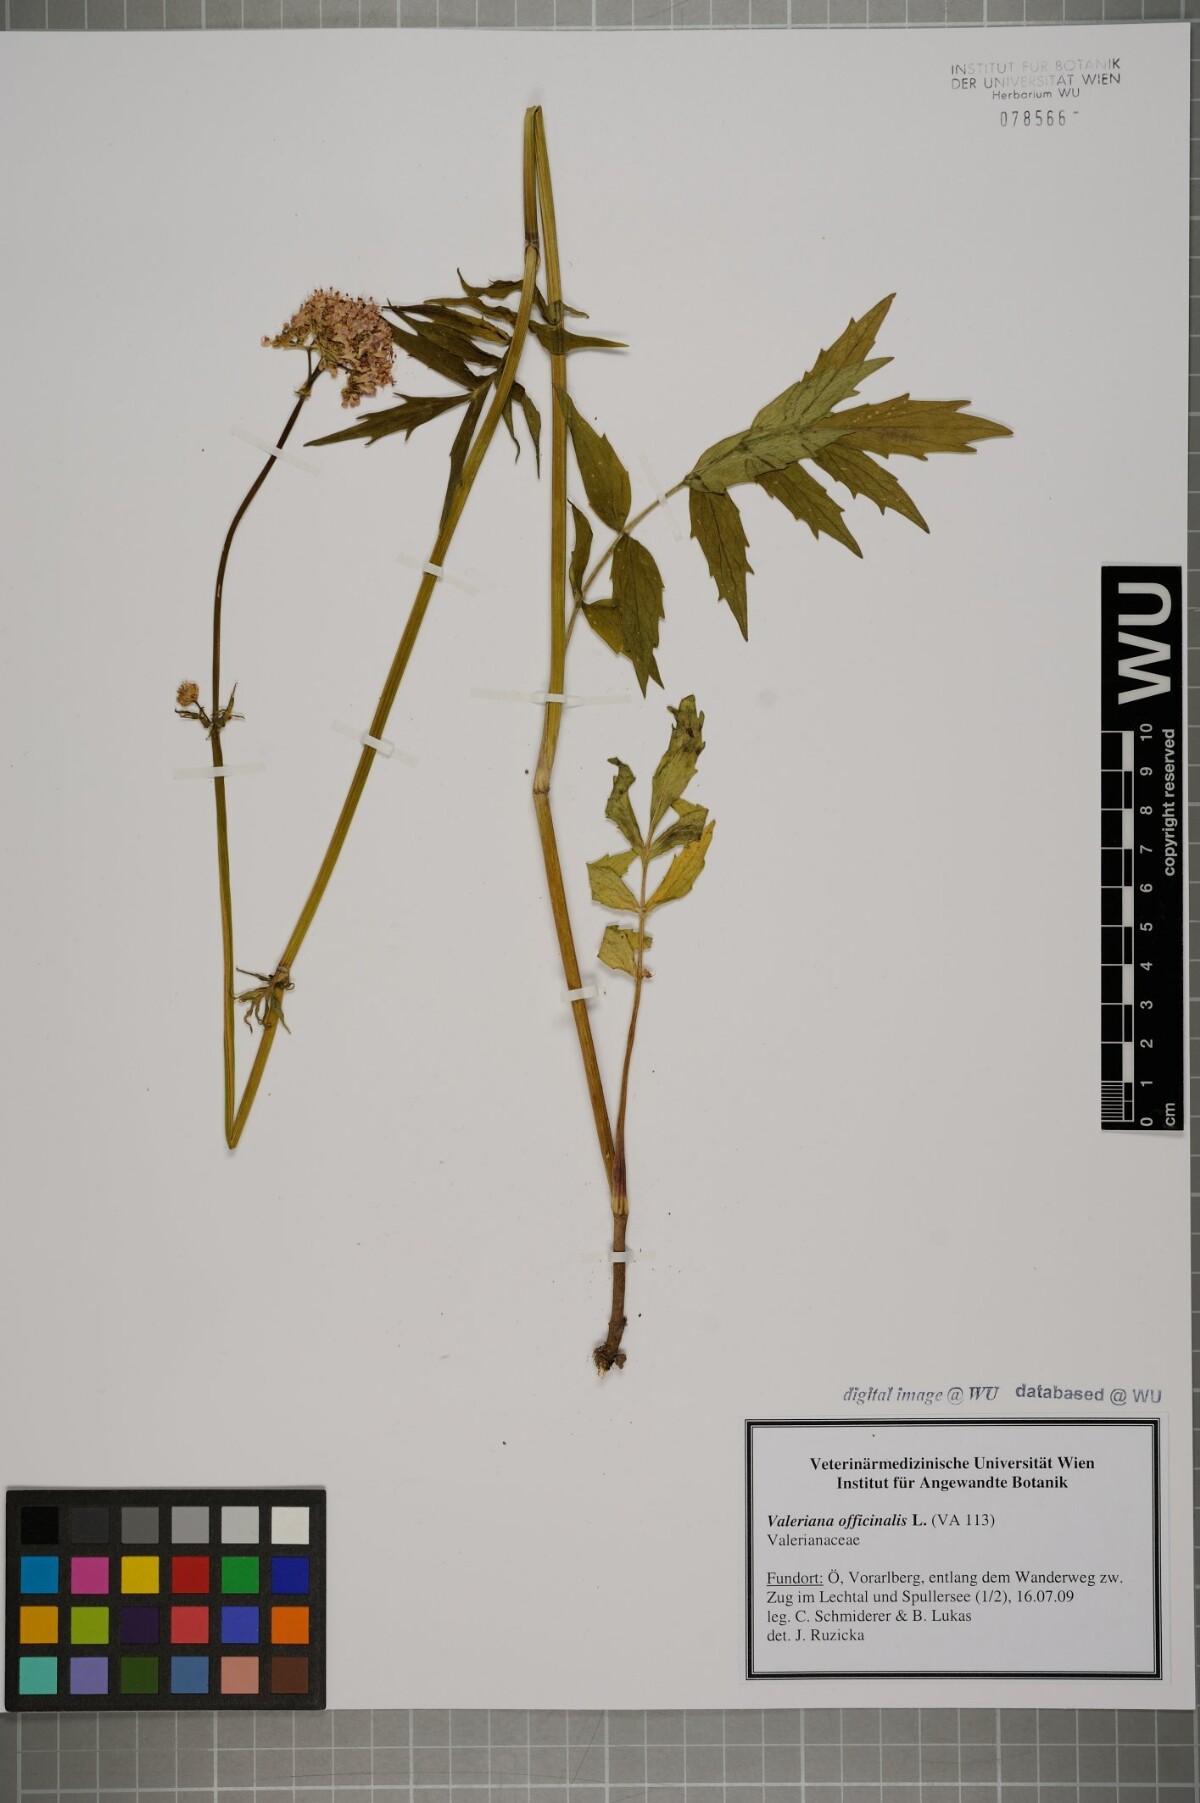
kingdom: Plantae
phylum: Tracheophyta
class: Magnoliopsida
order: Dipsacales
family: Caprifoliaceae
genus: Valeriana
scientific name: Valeriana officinalis
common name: Common valerian
